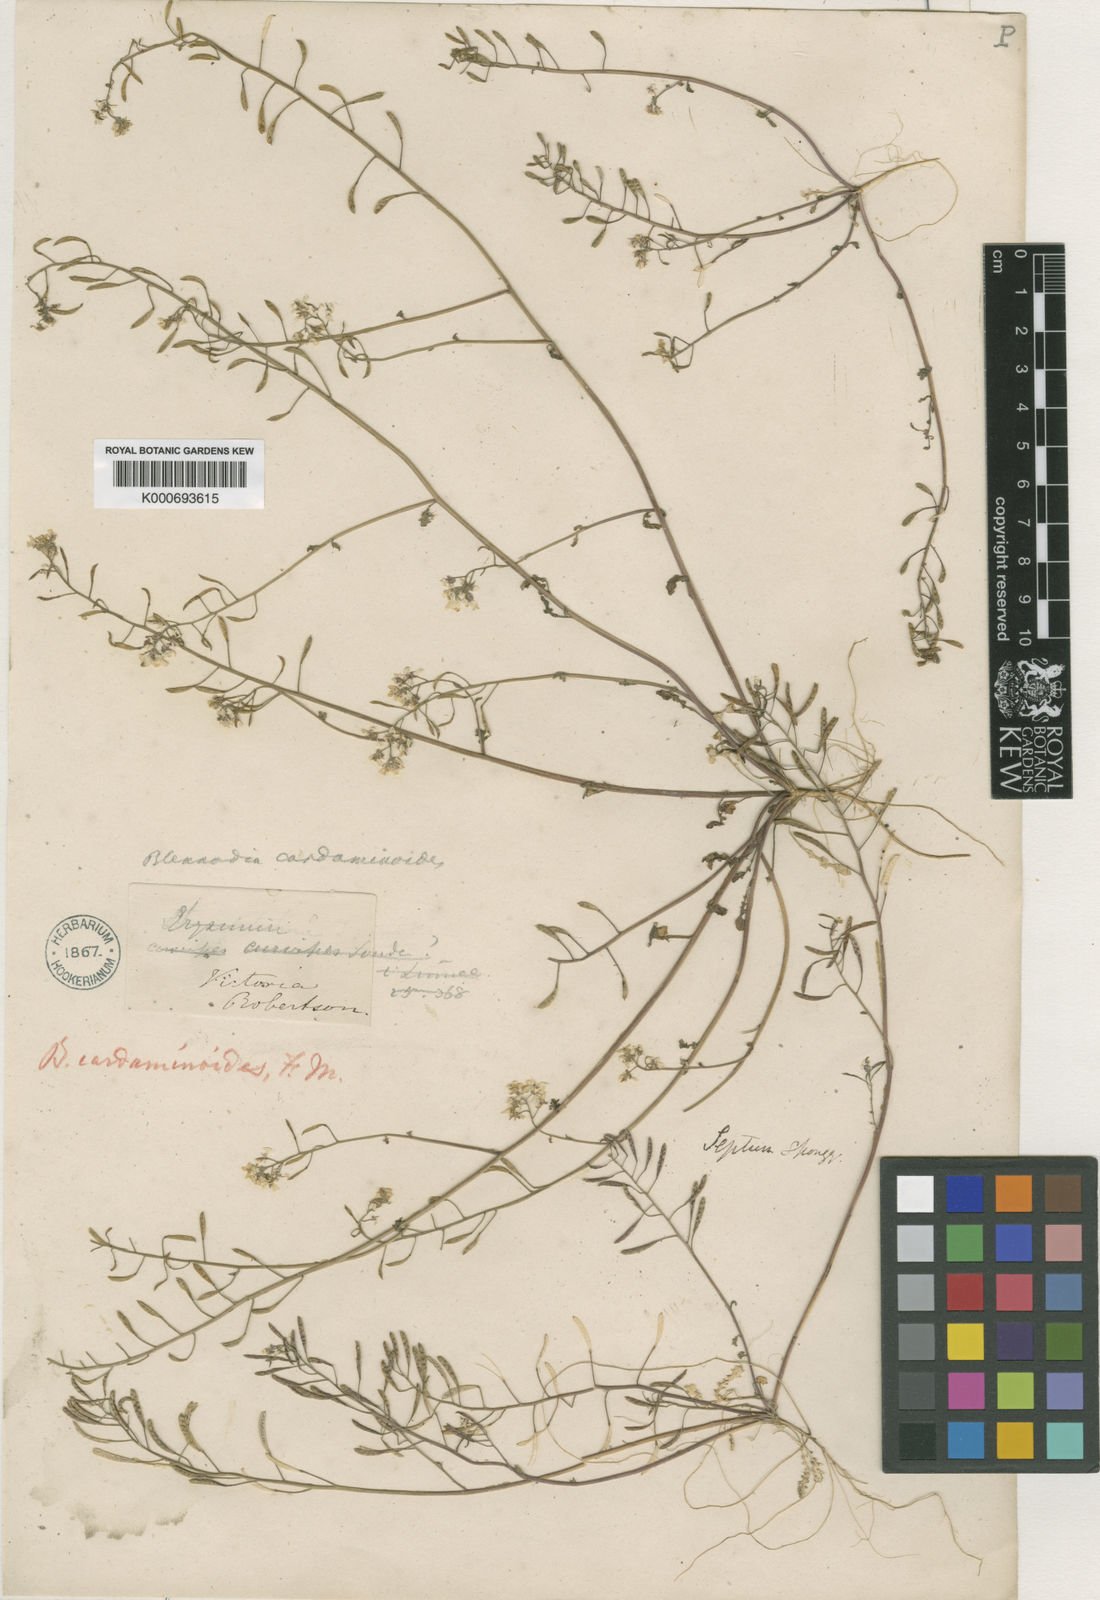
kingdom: Plantae
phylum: Tracheophyta
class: Magnoliopsida
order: Brassicales
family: Brassicaceae
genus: Pachymitus
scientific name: Pachymitus cardaminoides
